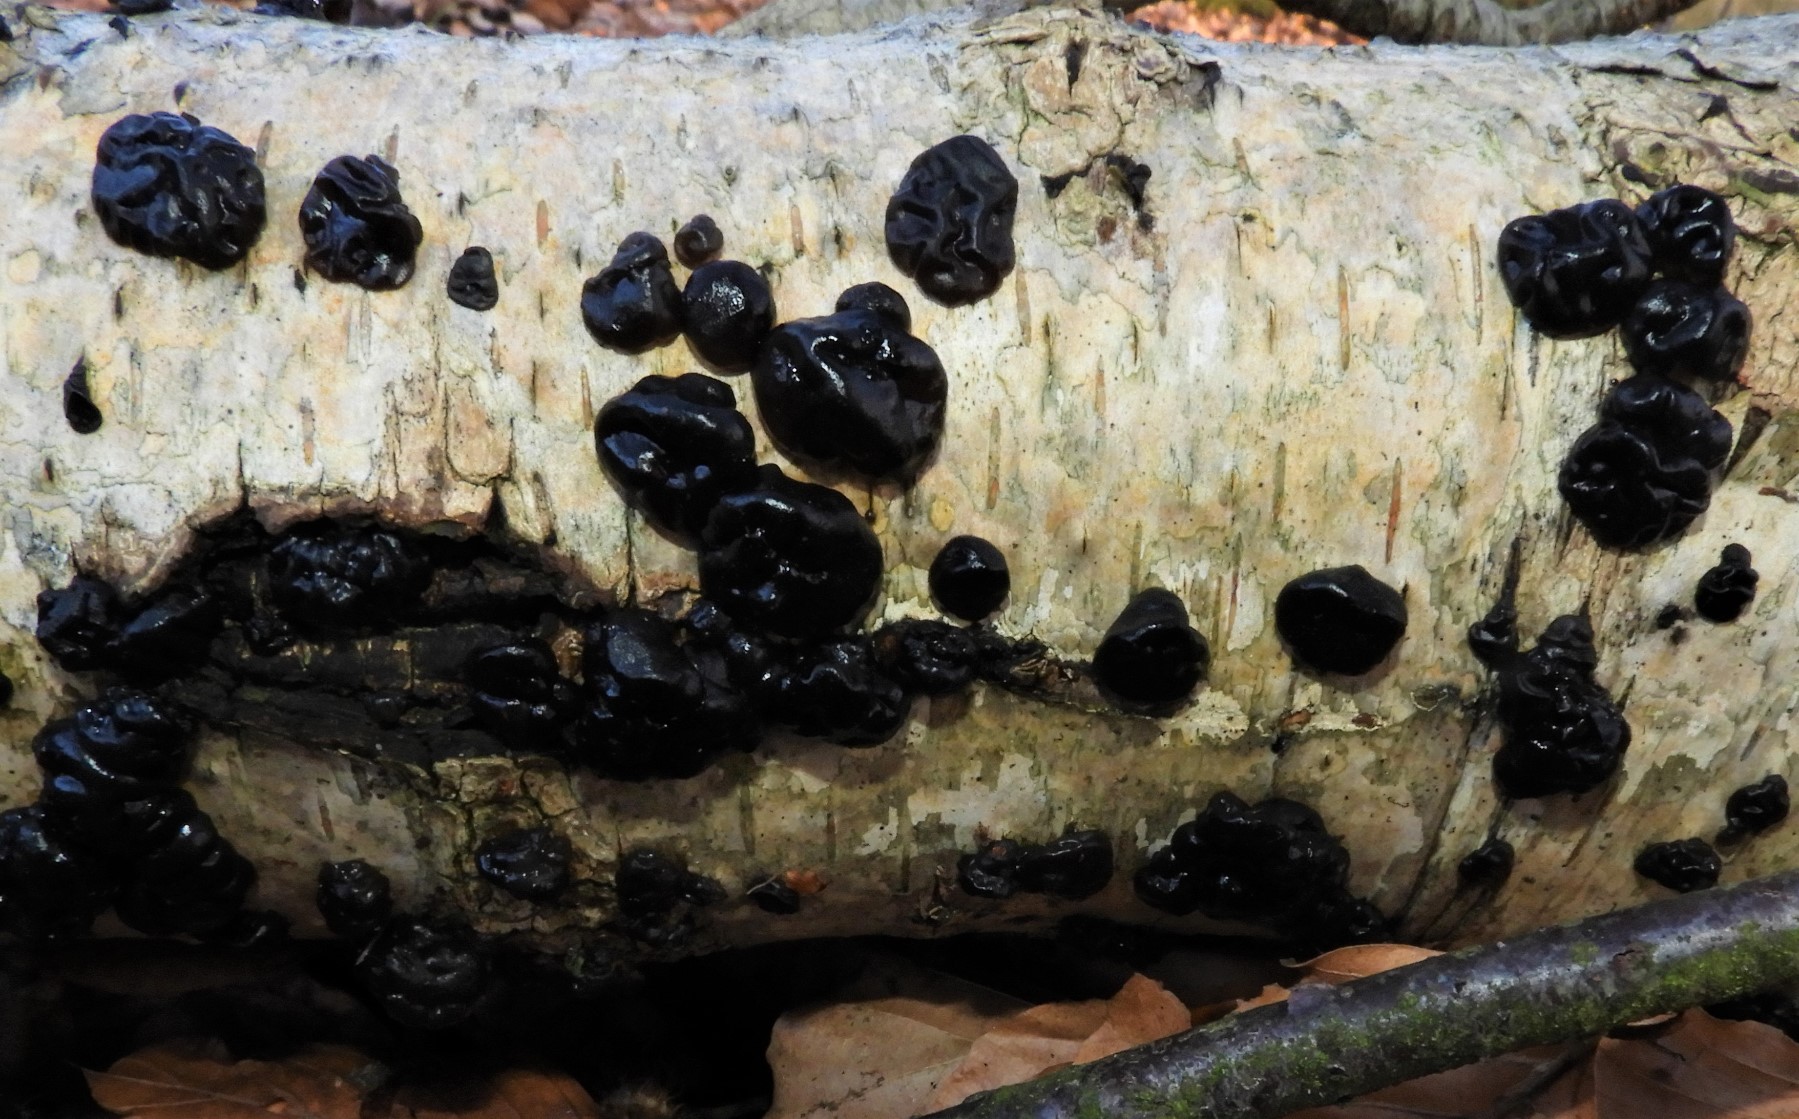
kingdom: Fungi
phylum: Basidiomycota
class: Agaricomycetes
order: Auriculariales
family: Auriculariaceae
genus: Exidia
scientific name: Exidia nigricans
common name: almindelig bævretop
